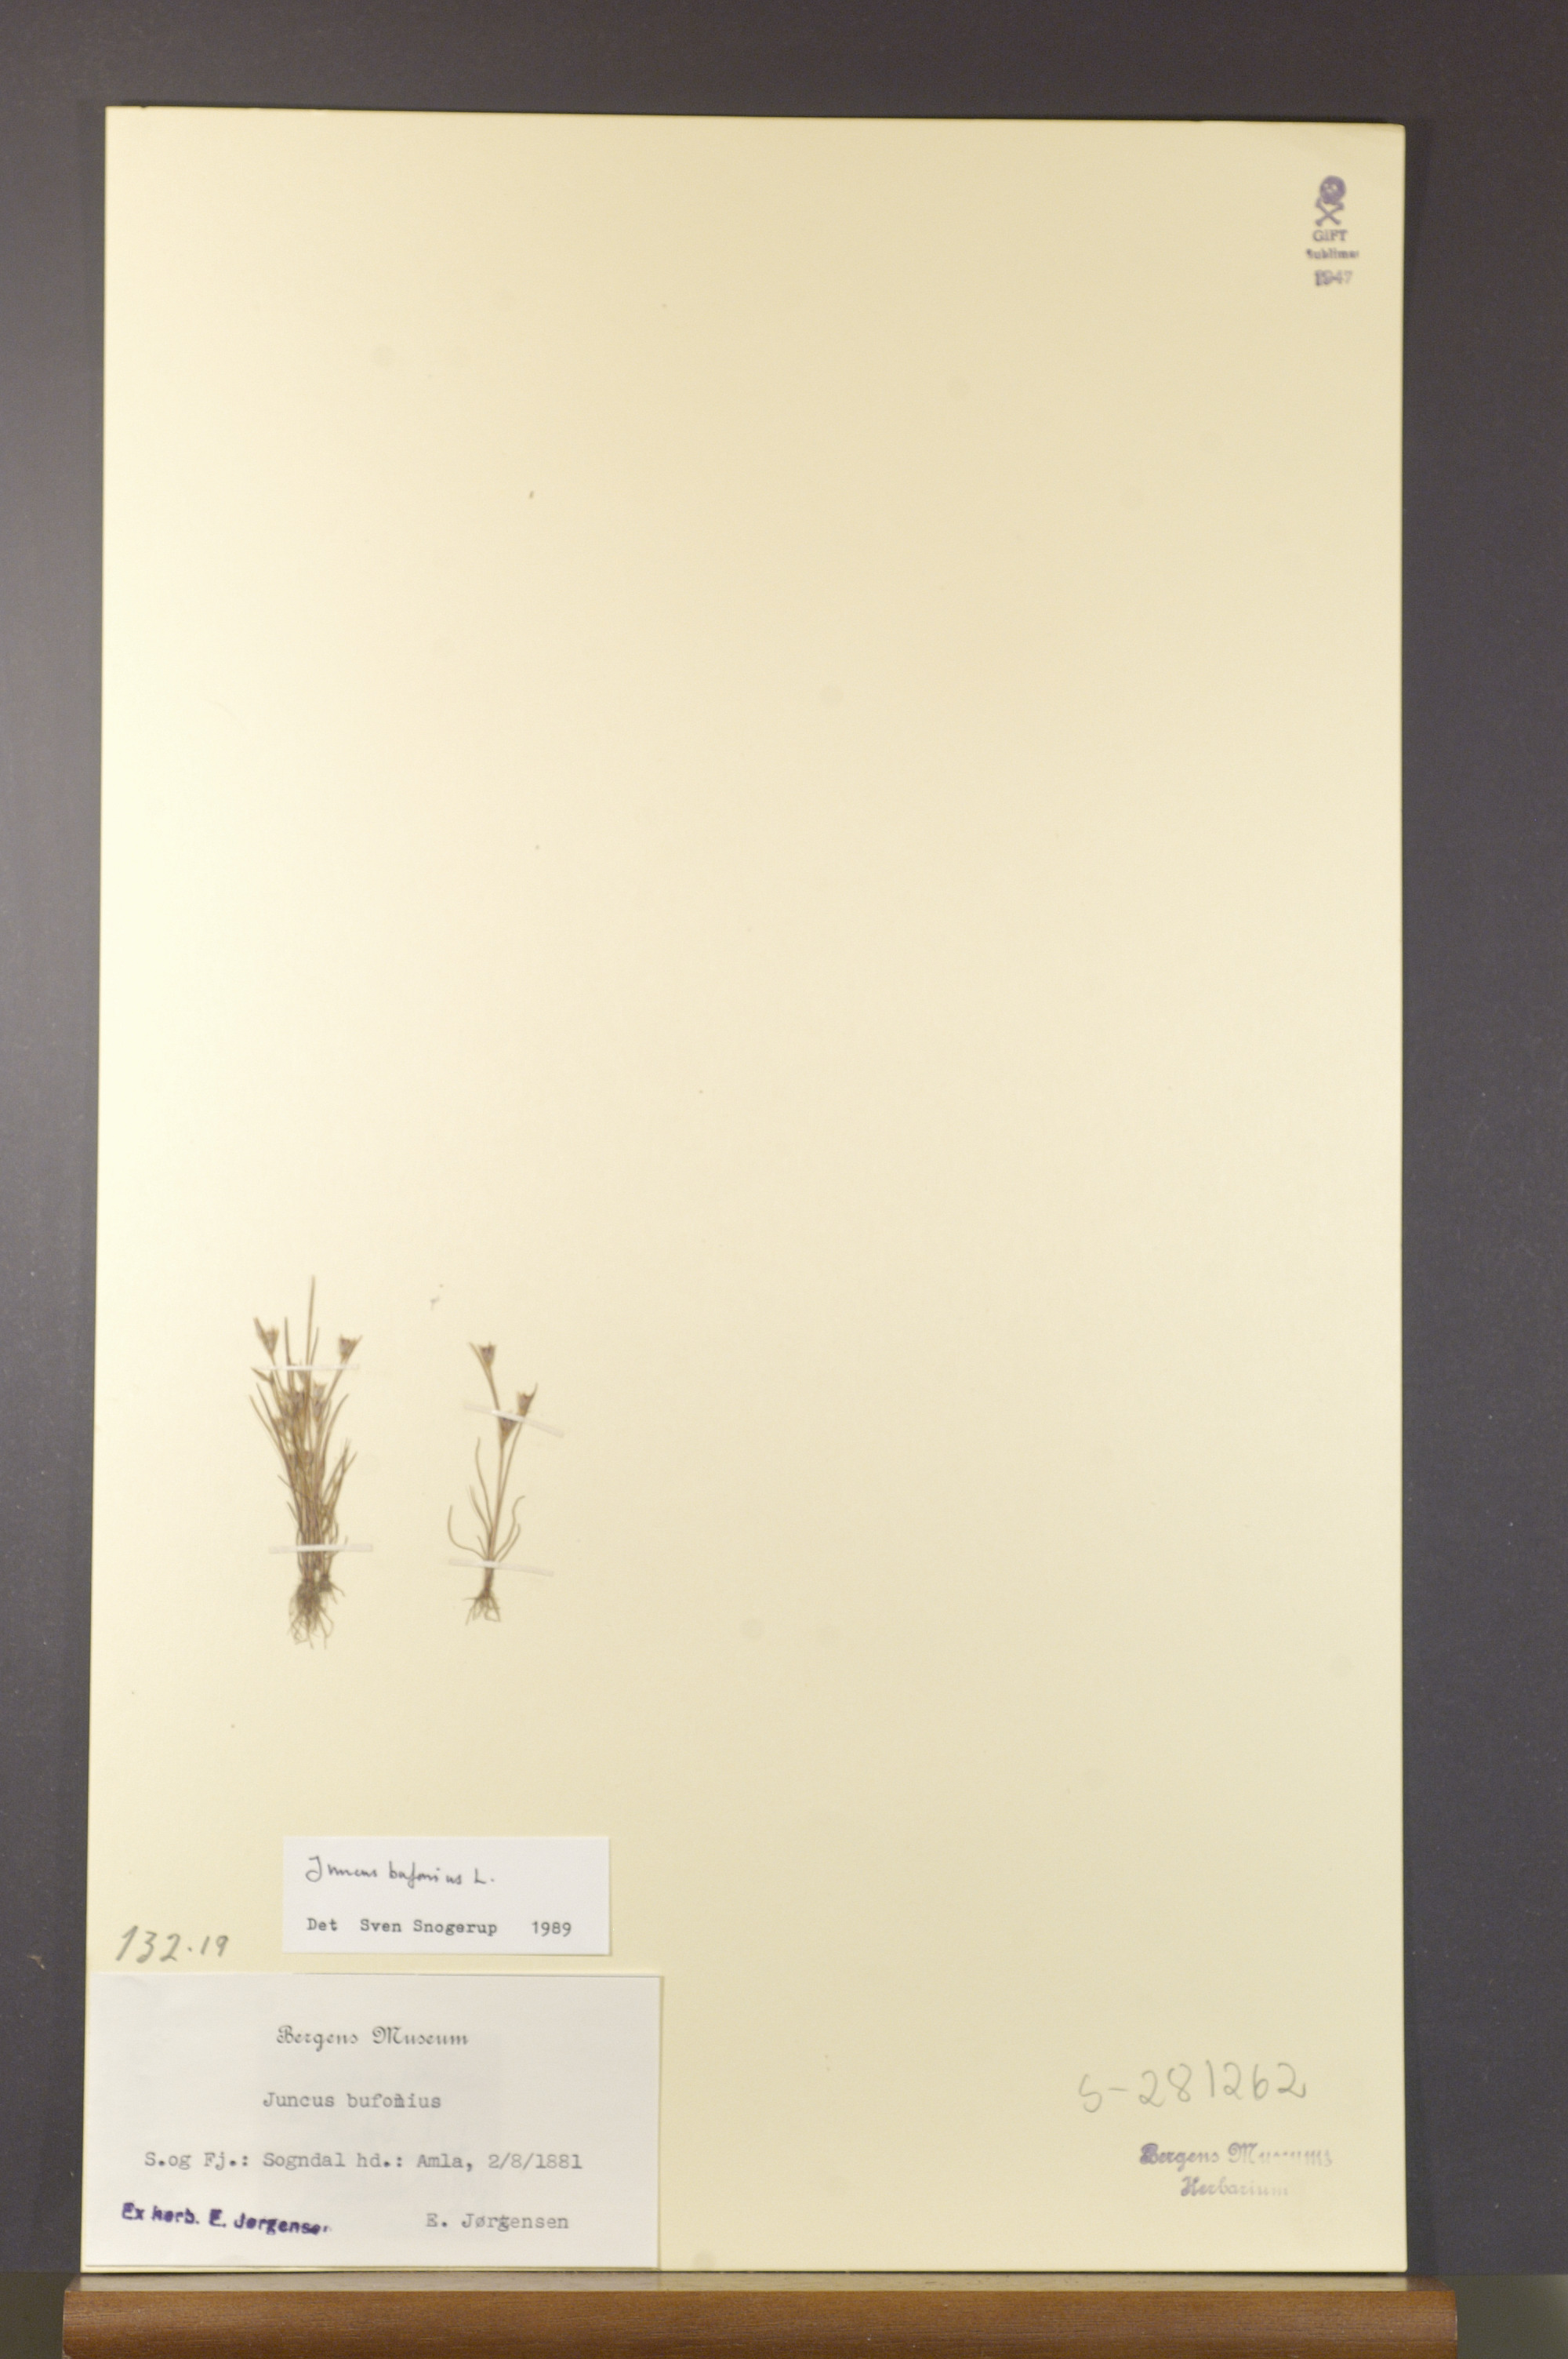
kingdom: Plantae
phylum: Tracheophyta
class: Liliopsida
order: Poales
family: Juncaceae
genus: Juncus
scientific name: Juncus bufonius
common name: Toad rush
